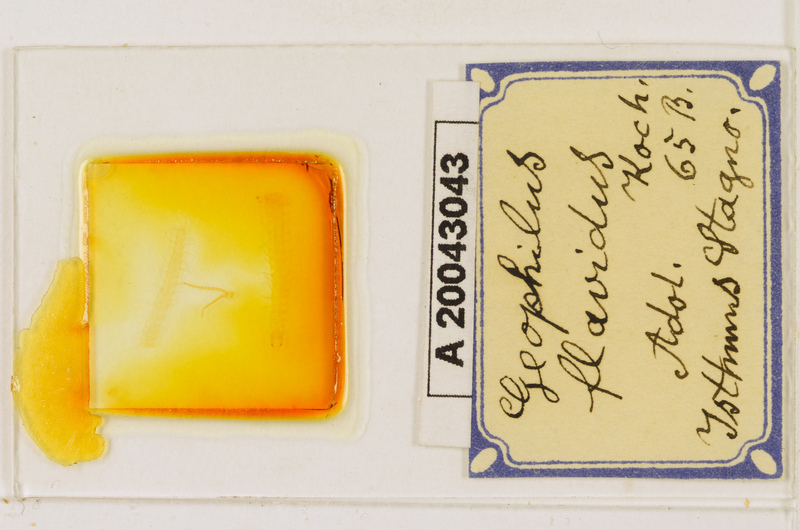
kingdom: Animalia
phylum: Arthropoda
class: Chilopoda
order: Geophilomorpha
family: Geophilidae
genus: Geophilus
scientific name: Geophilus electricus
